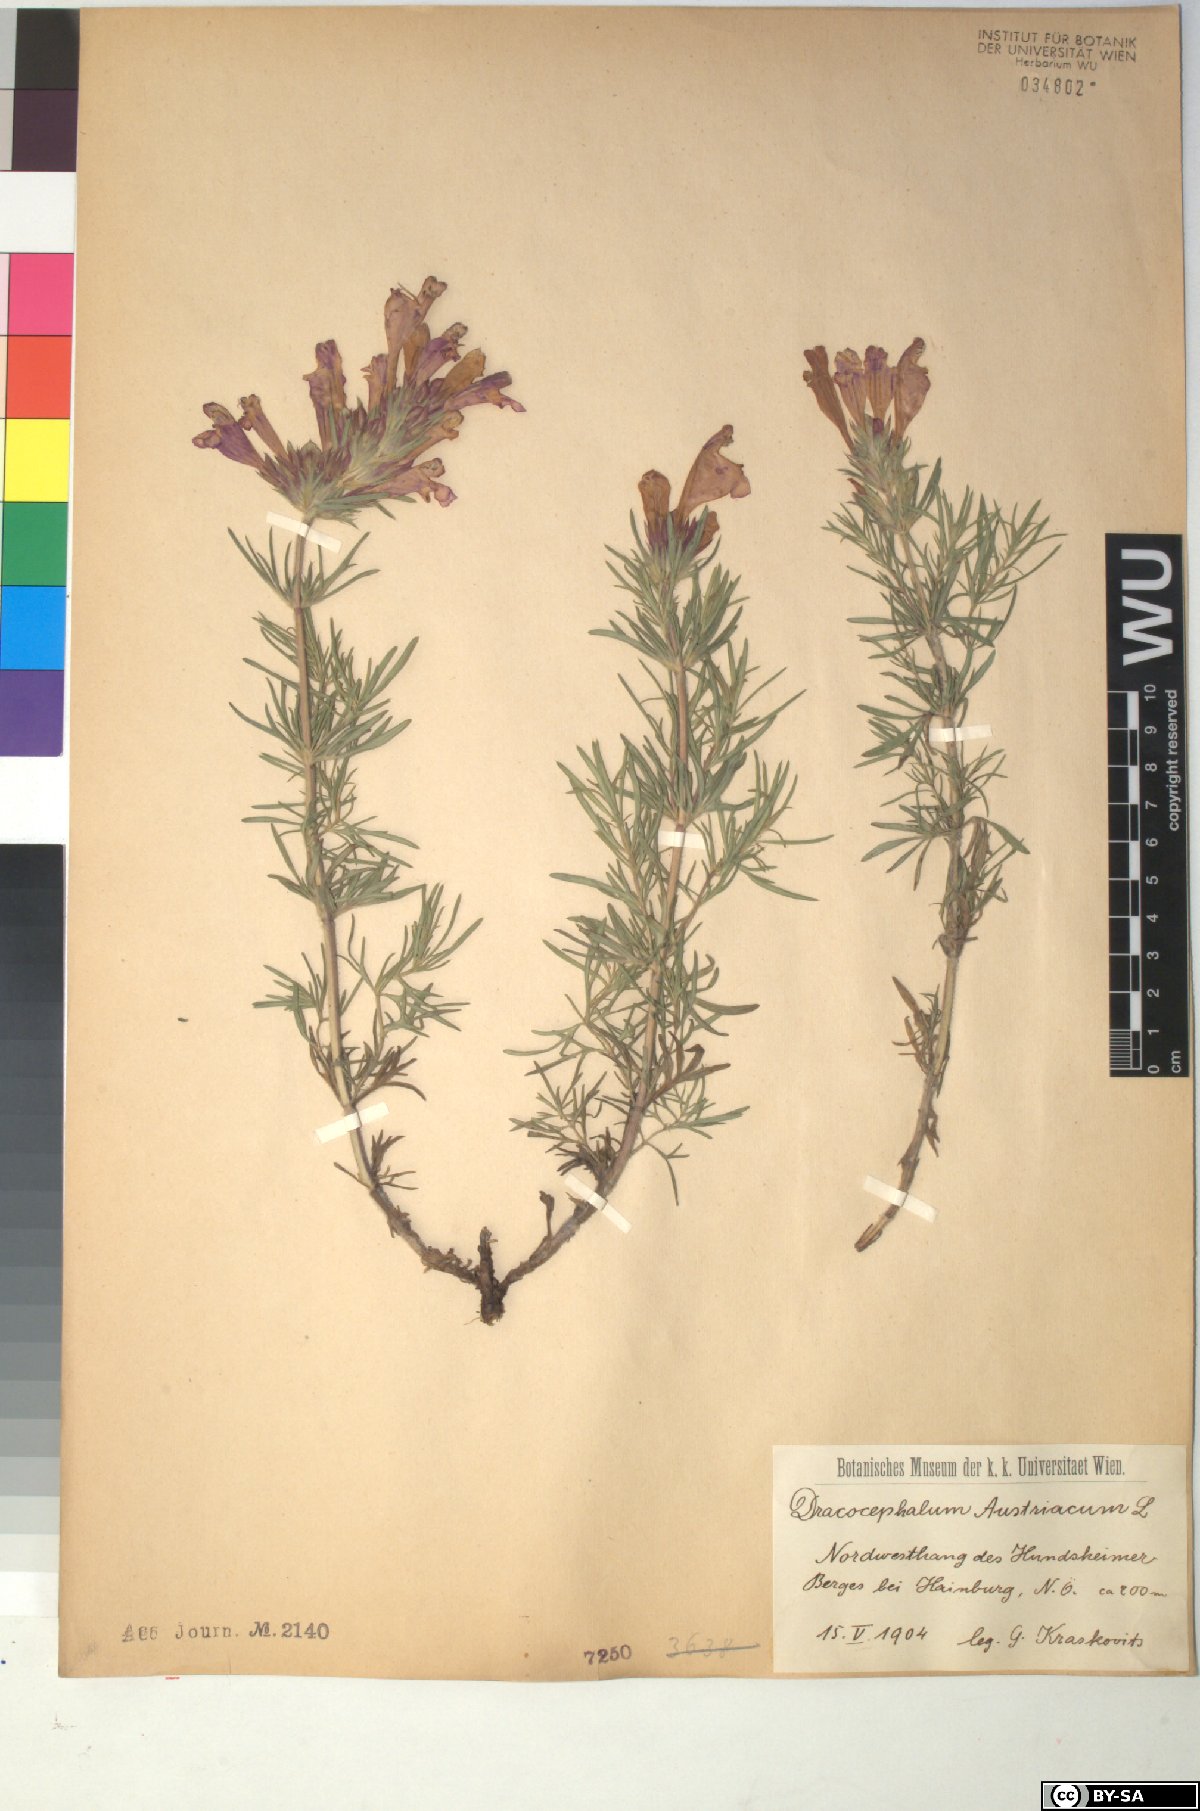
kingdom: Plantae
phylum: Tracheophyta
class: Magnoliopsida
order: Lamiales
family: Lamiaceae
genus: Dracocephalum
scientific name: Dracocephalum austriacum
